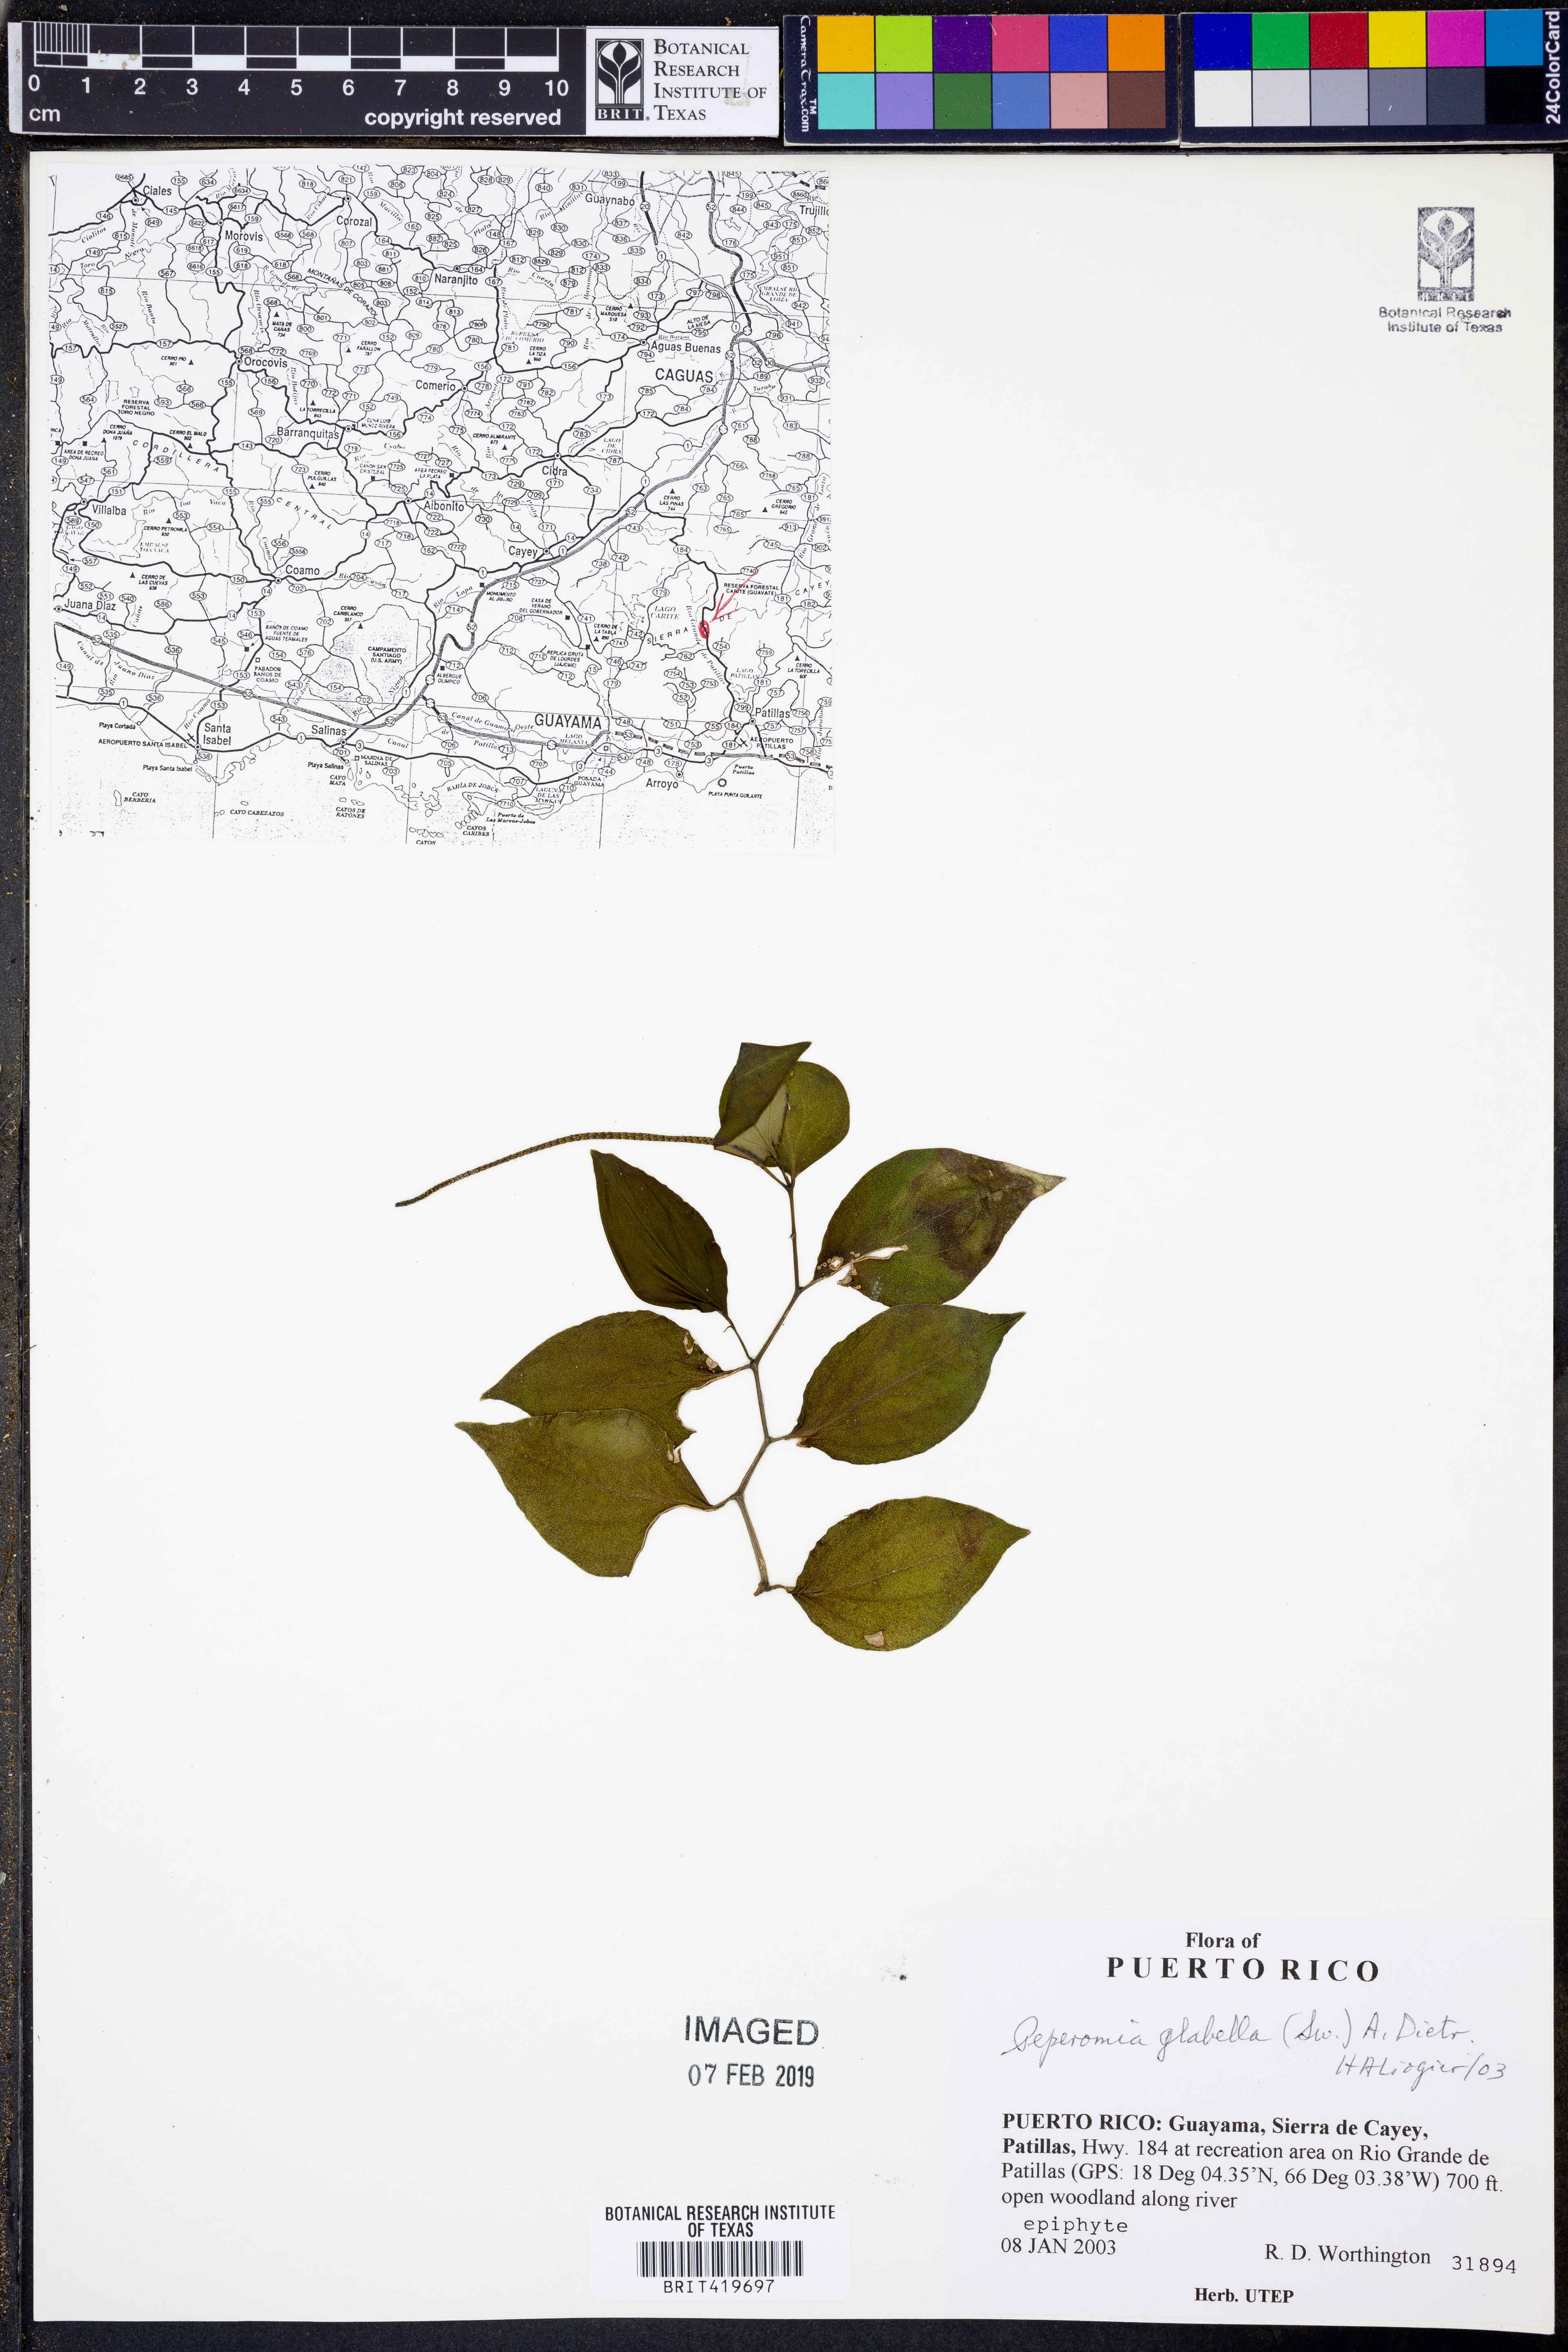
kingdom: Plantae
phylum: Tracheophyta
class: Magnoliopsida
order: Piperales
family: Piperaceae
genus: Peperomia
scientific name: Peperomia glabella
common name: Cypress peperomia
